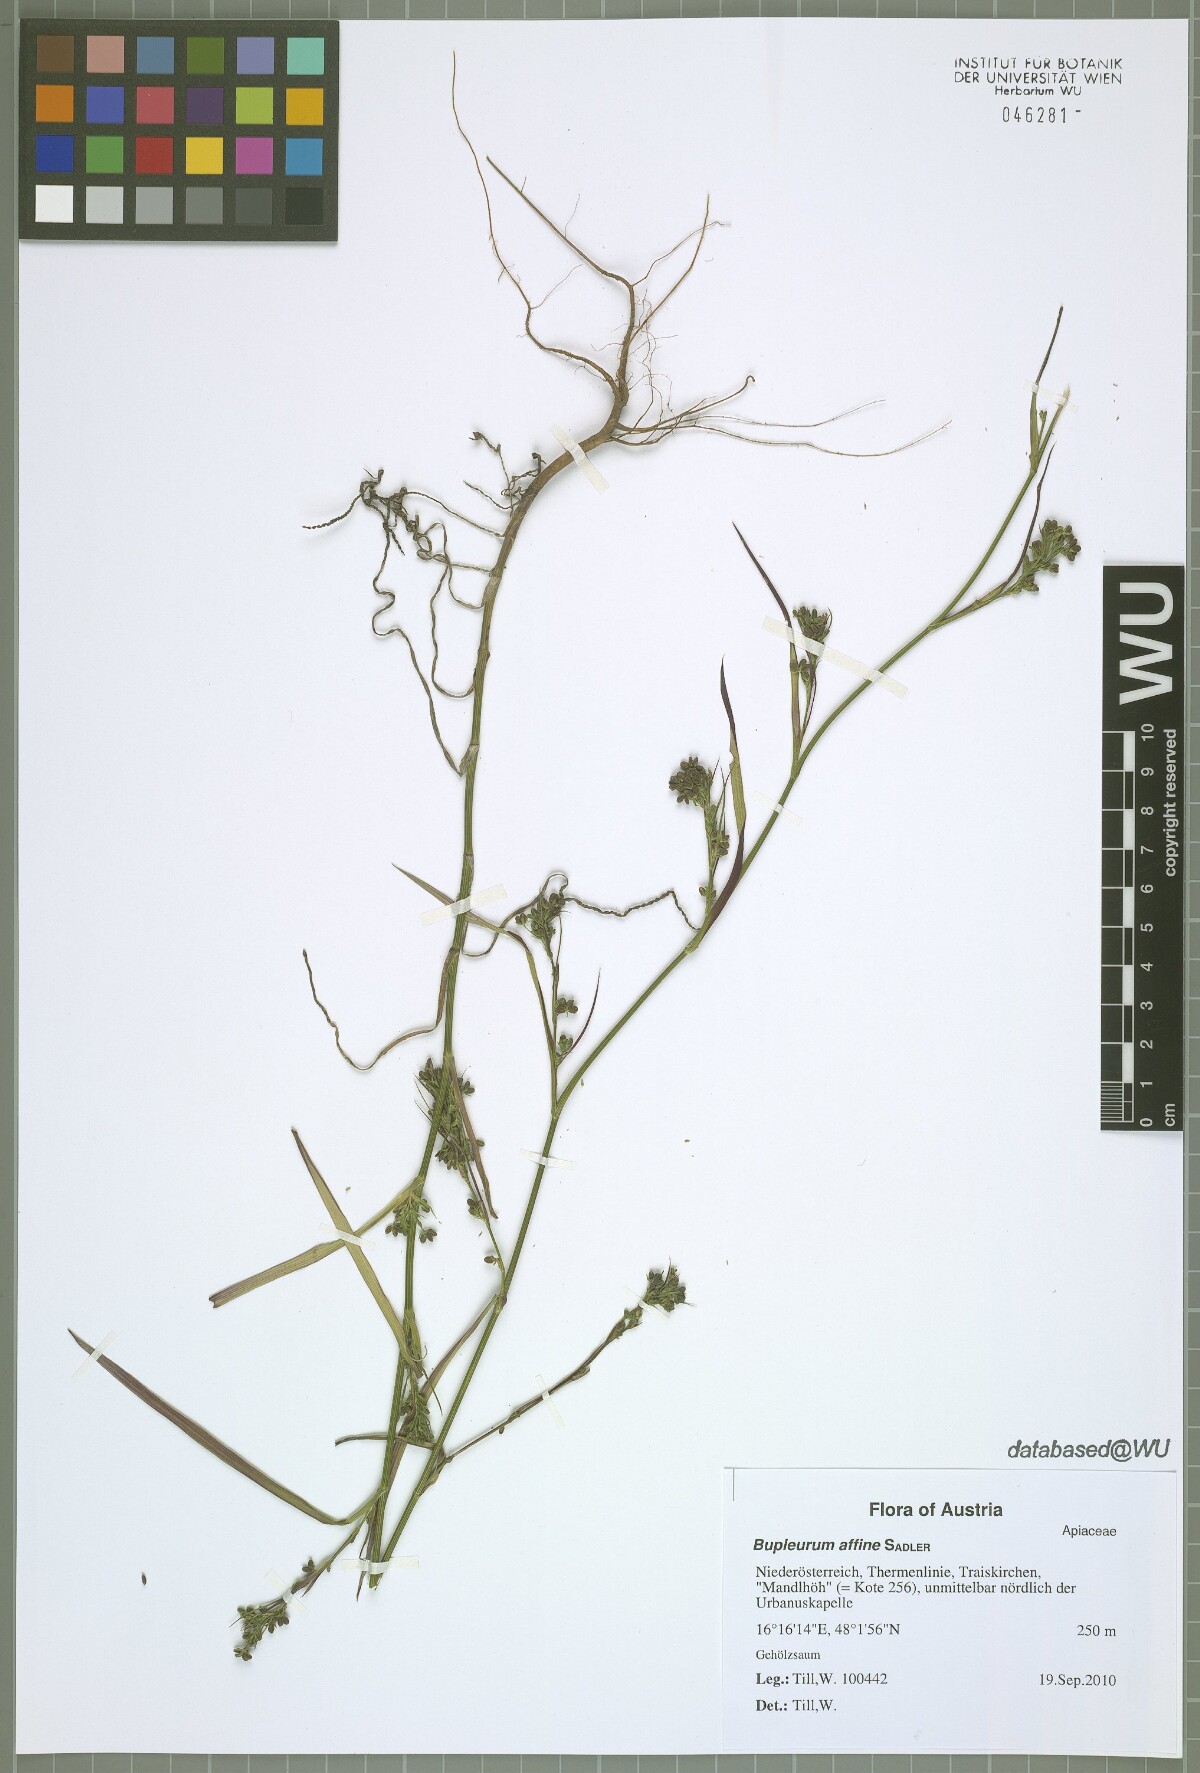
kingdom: Plantae
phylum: Tracheophyta
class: Magnoliopsida
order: Apiales
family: Apiaceae
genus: Bupleurum
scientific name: Bupleurum affine
